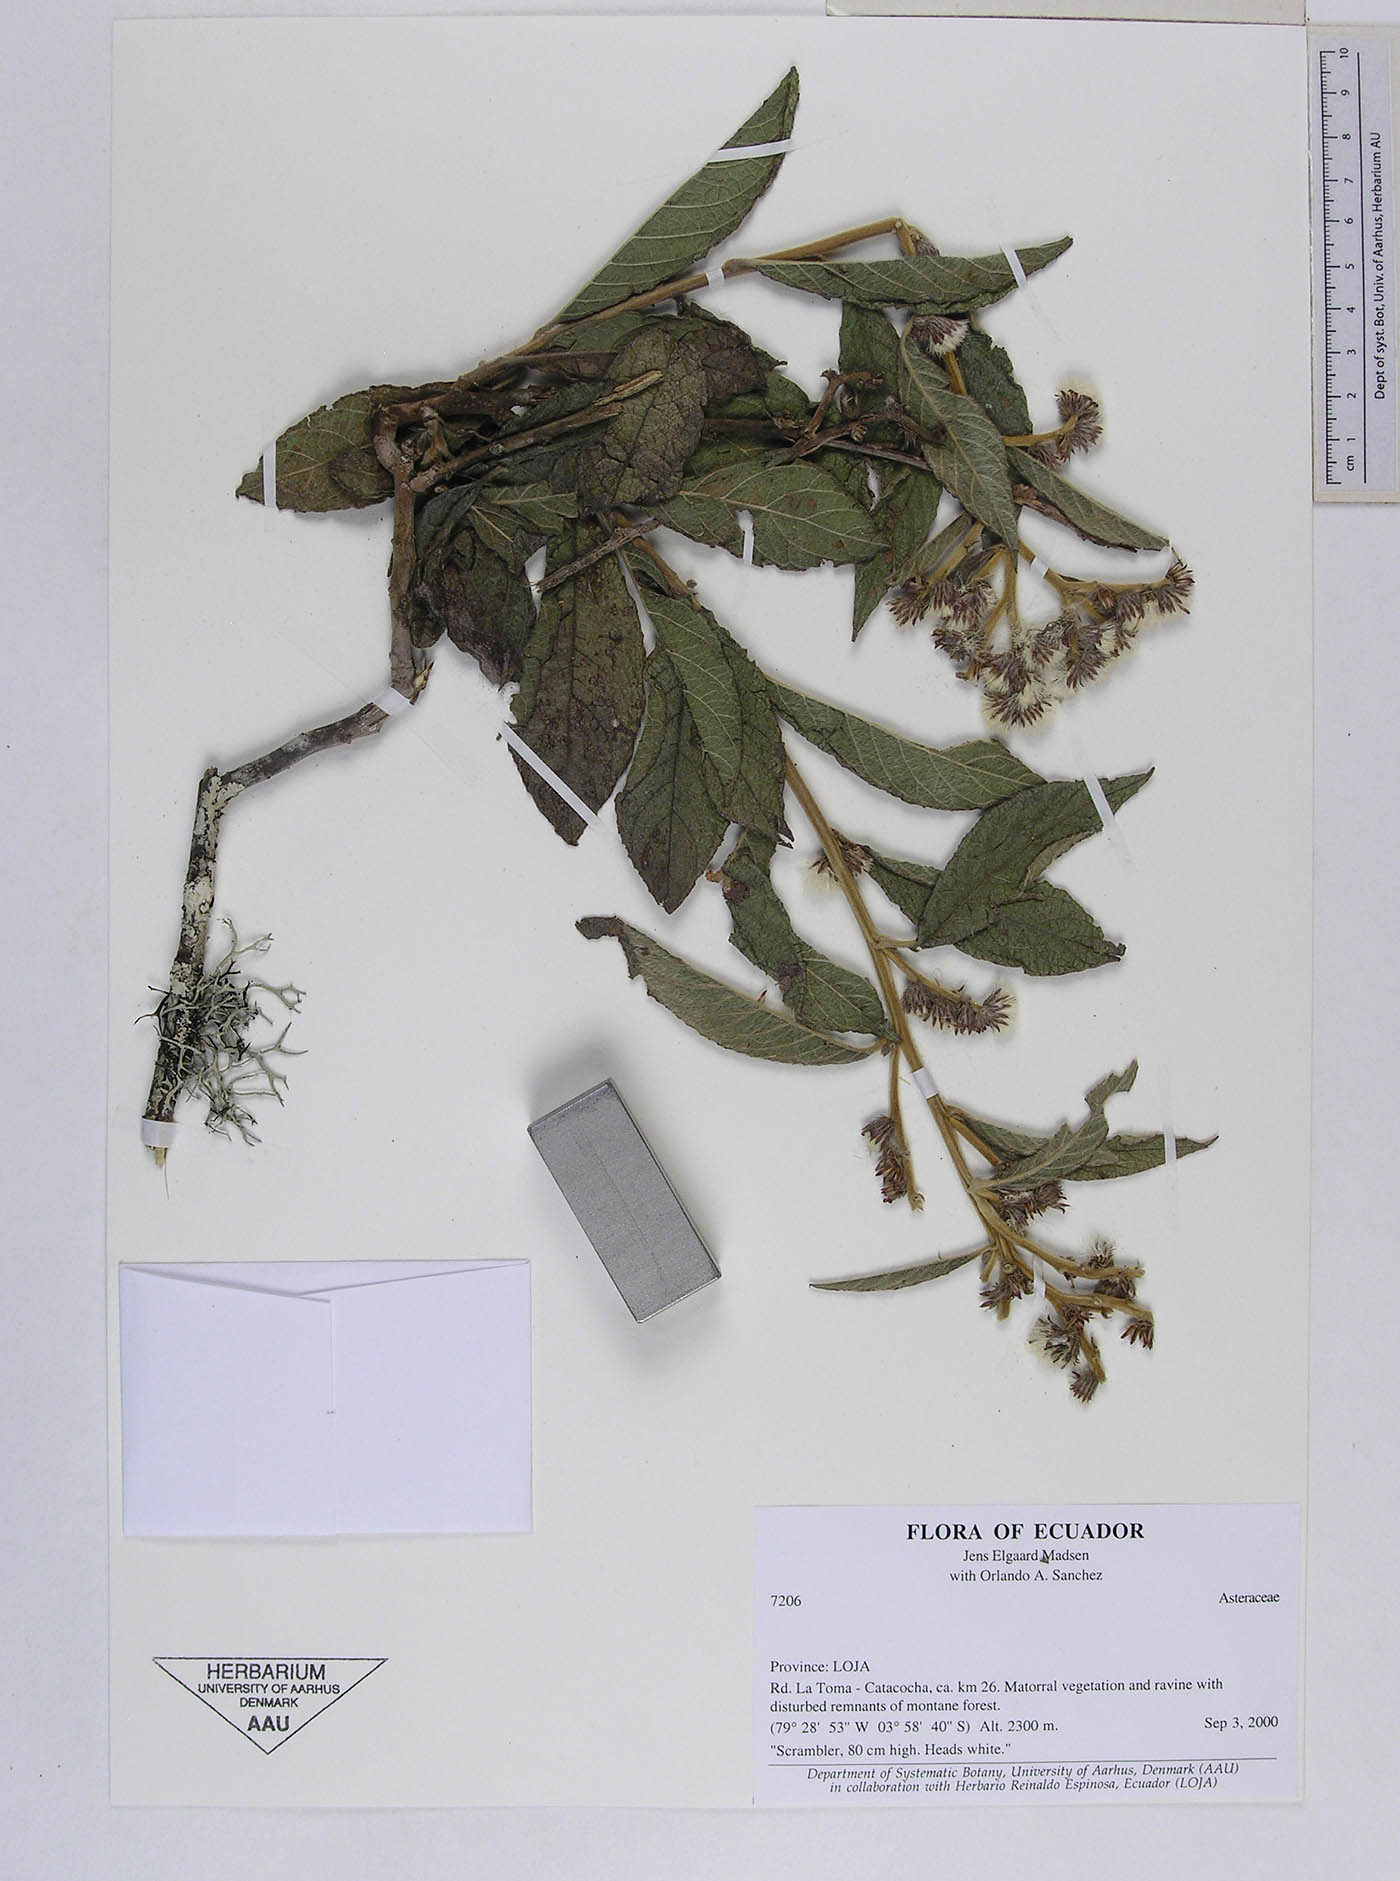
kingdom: Plantae
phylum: Tracheophyta
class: Magnoliopsida
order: Asterales
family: Asteraceae
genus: Lepidaploa
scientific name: Lepidaploa canescens
